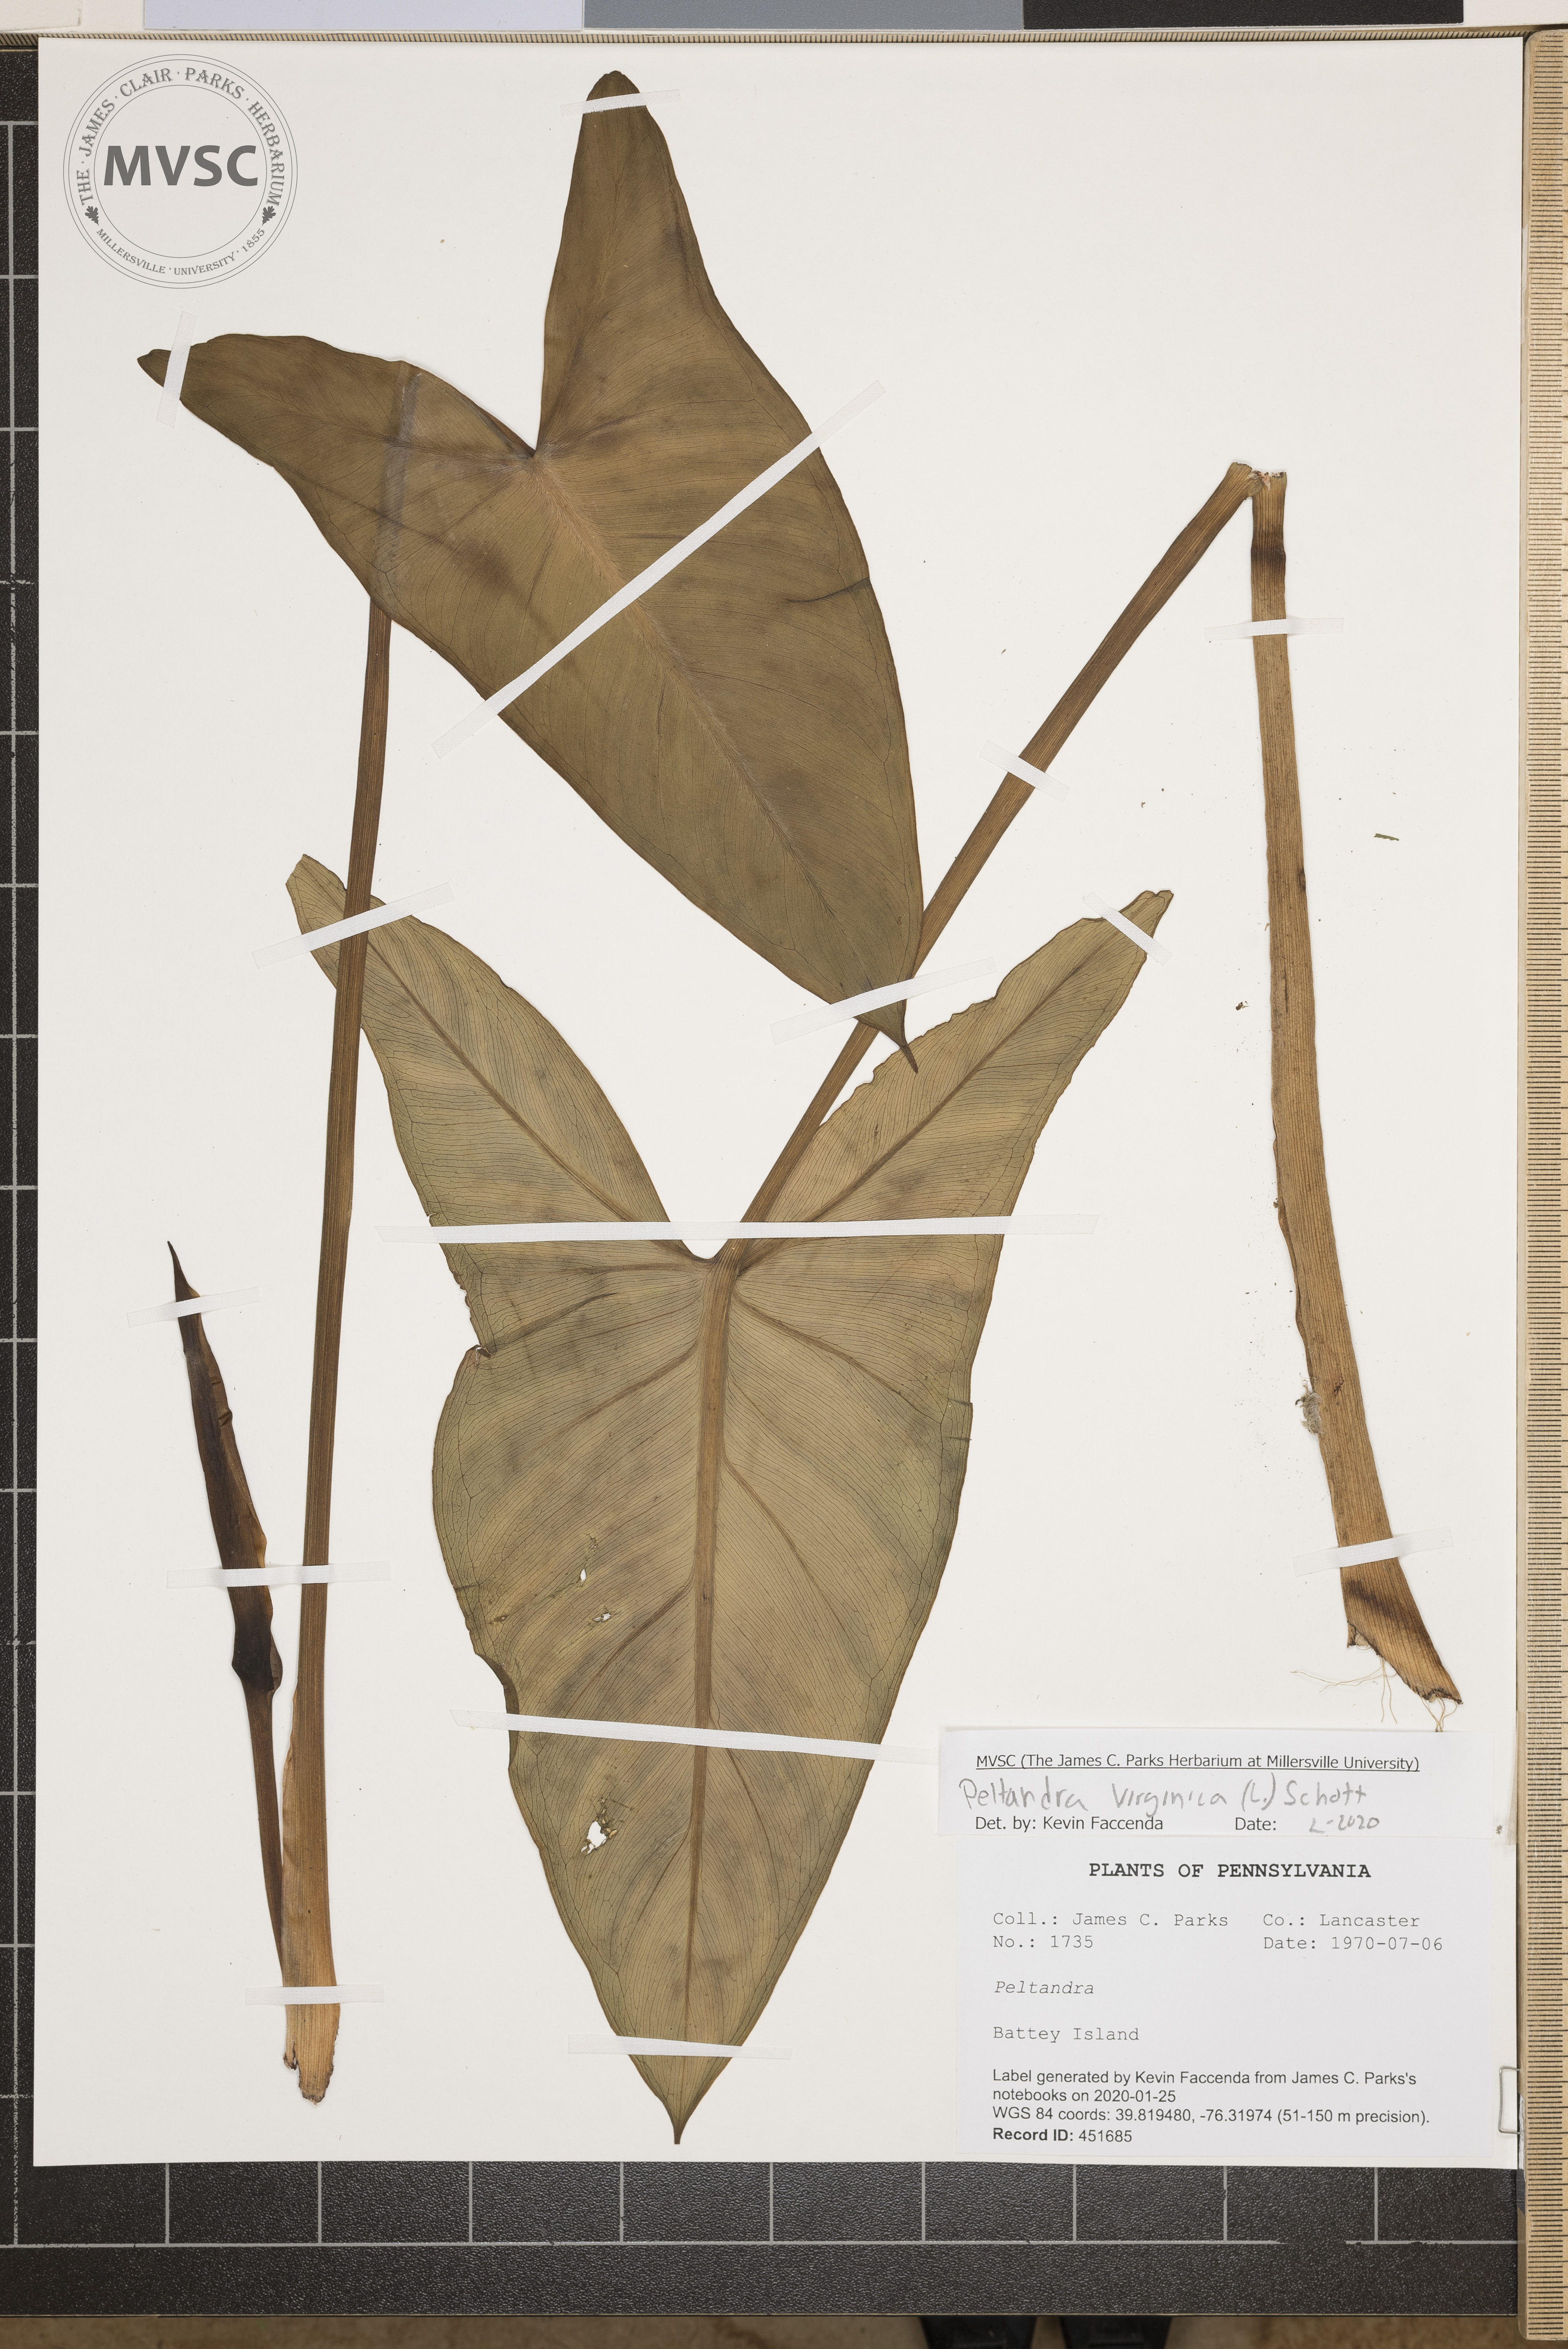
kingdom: Plantae
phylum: Tracheophyta
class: Liliopsida
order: Alismatales
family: Araceae
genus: Peltandra
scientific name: Peltandra virginica
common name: Arrow arum
